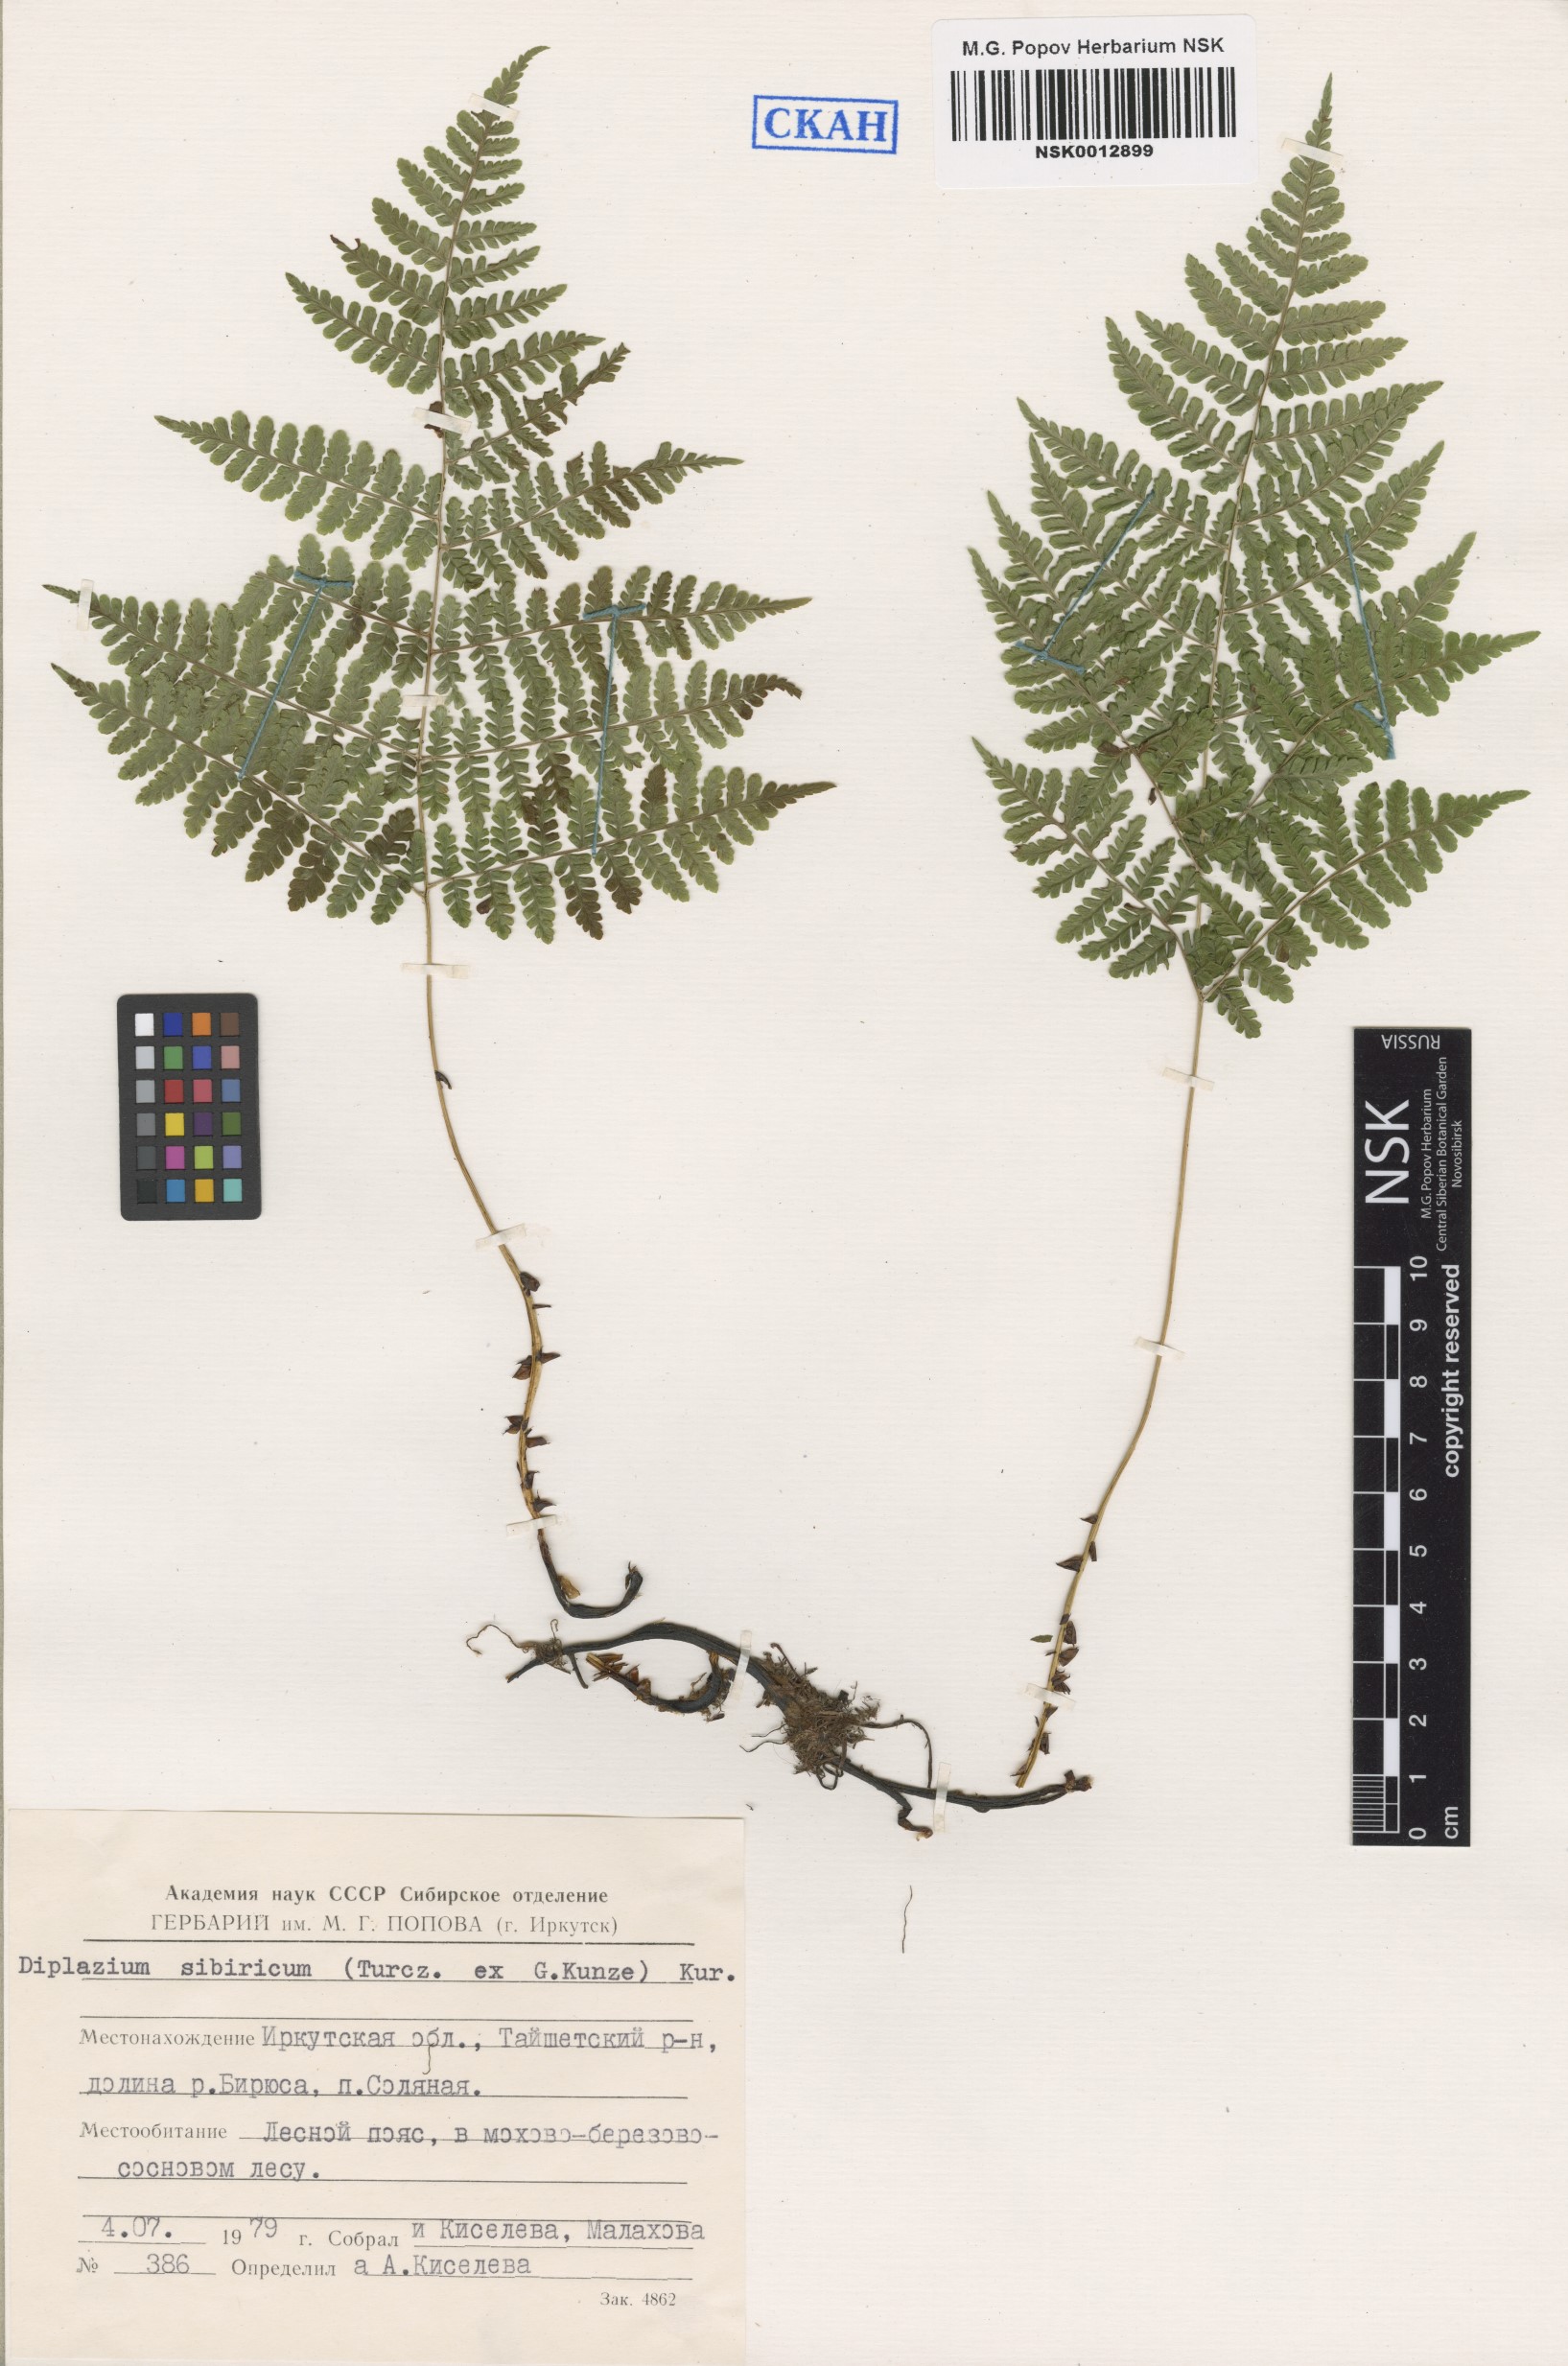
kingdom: Plantae
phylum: Tracheophyta
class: Polypodiopsida
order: Polypodiales
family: Athyriaceae
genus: Diplazium
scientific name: Diplazium sibiricum
